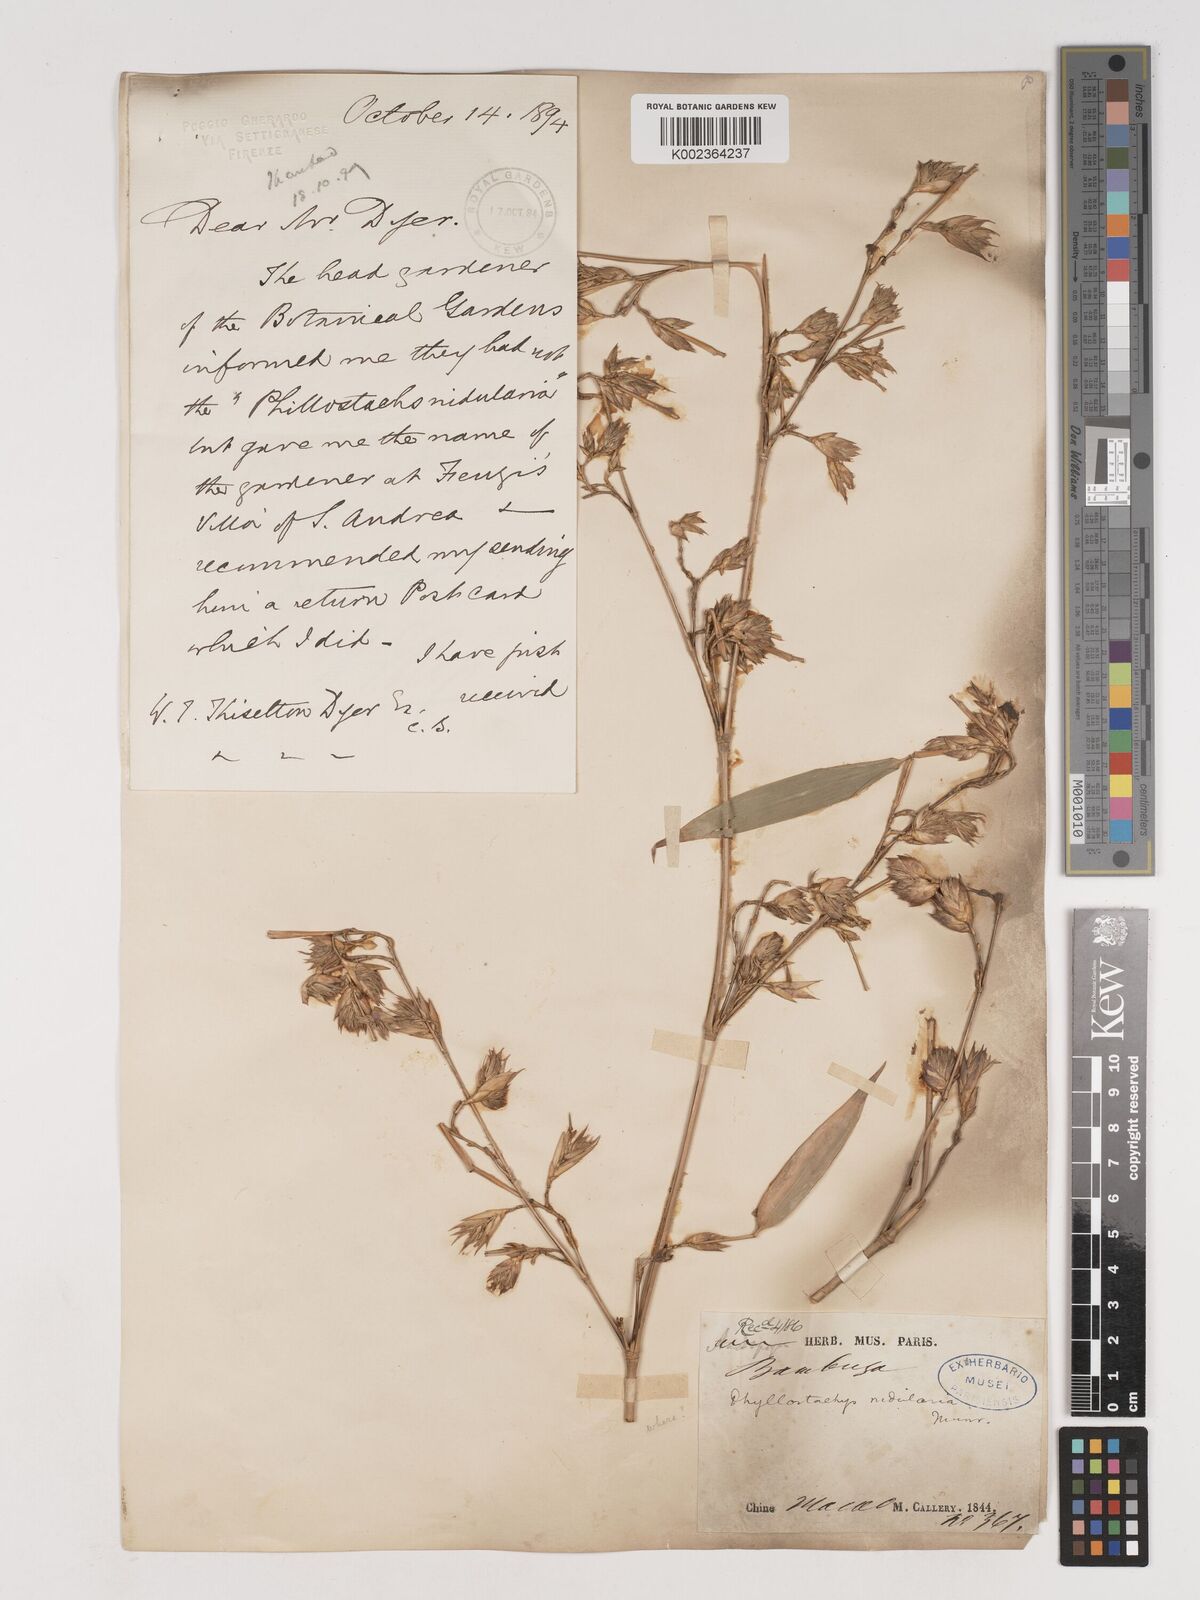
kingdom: Plantae
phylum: Tracheophyta
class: Liliopsida
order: Poales
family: Poaceae
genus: Phyllostachys
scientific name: Phyllostachys nidularia
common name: Broom bamboo
